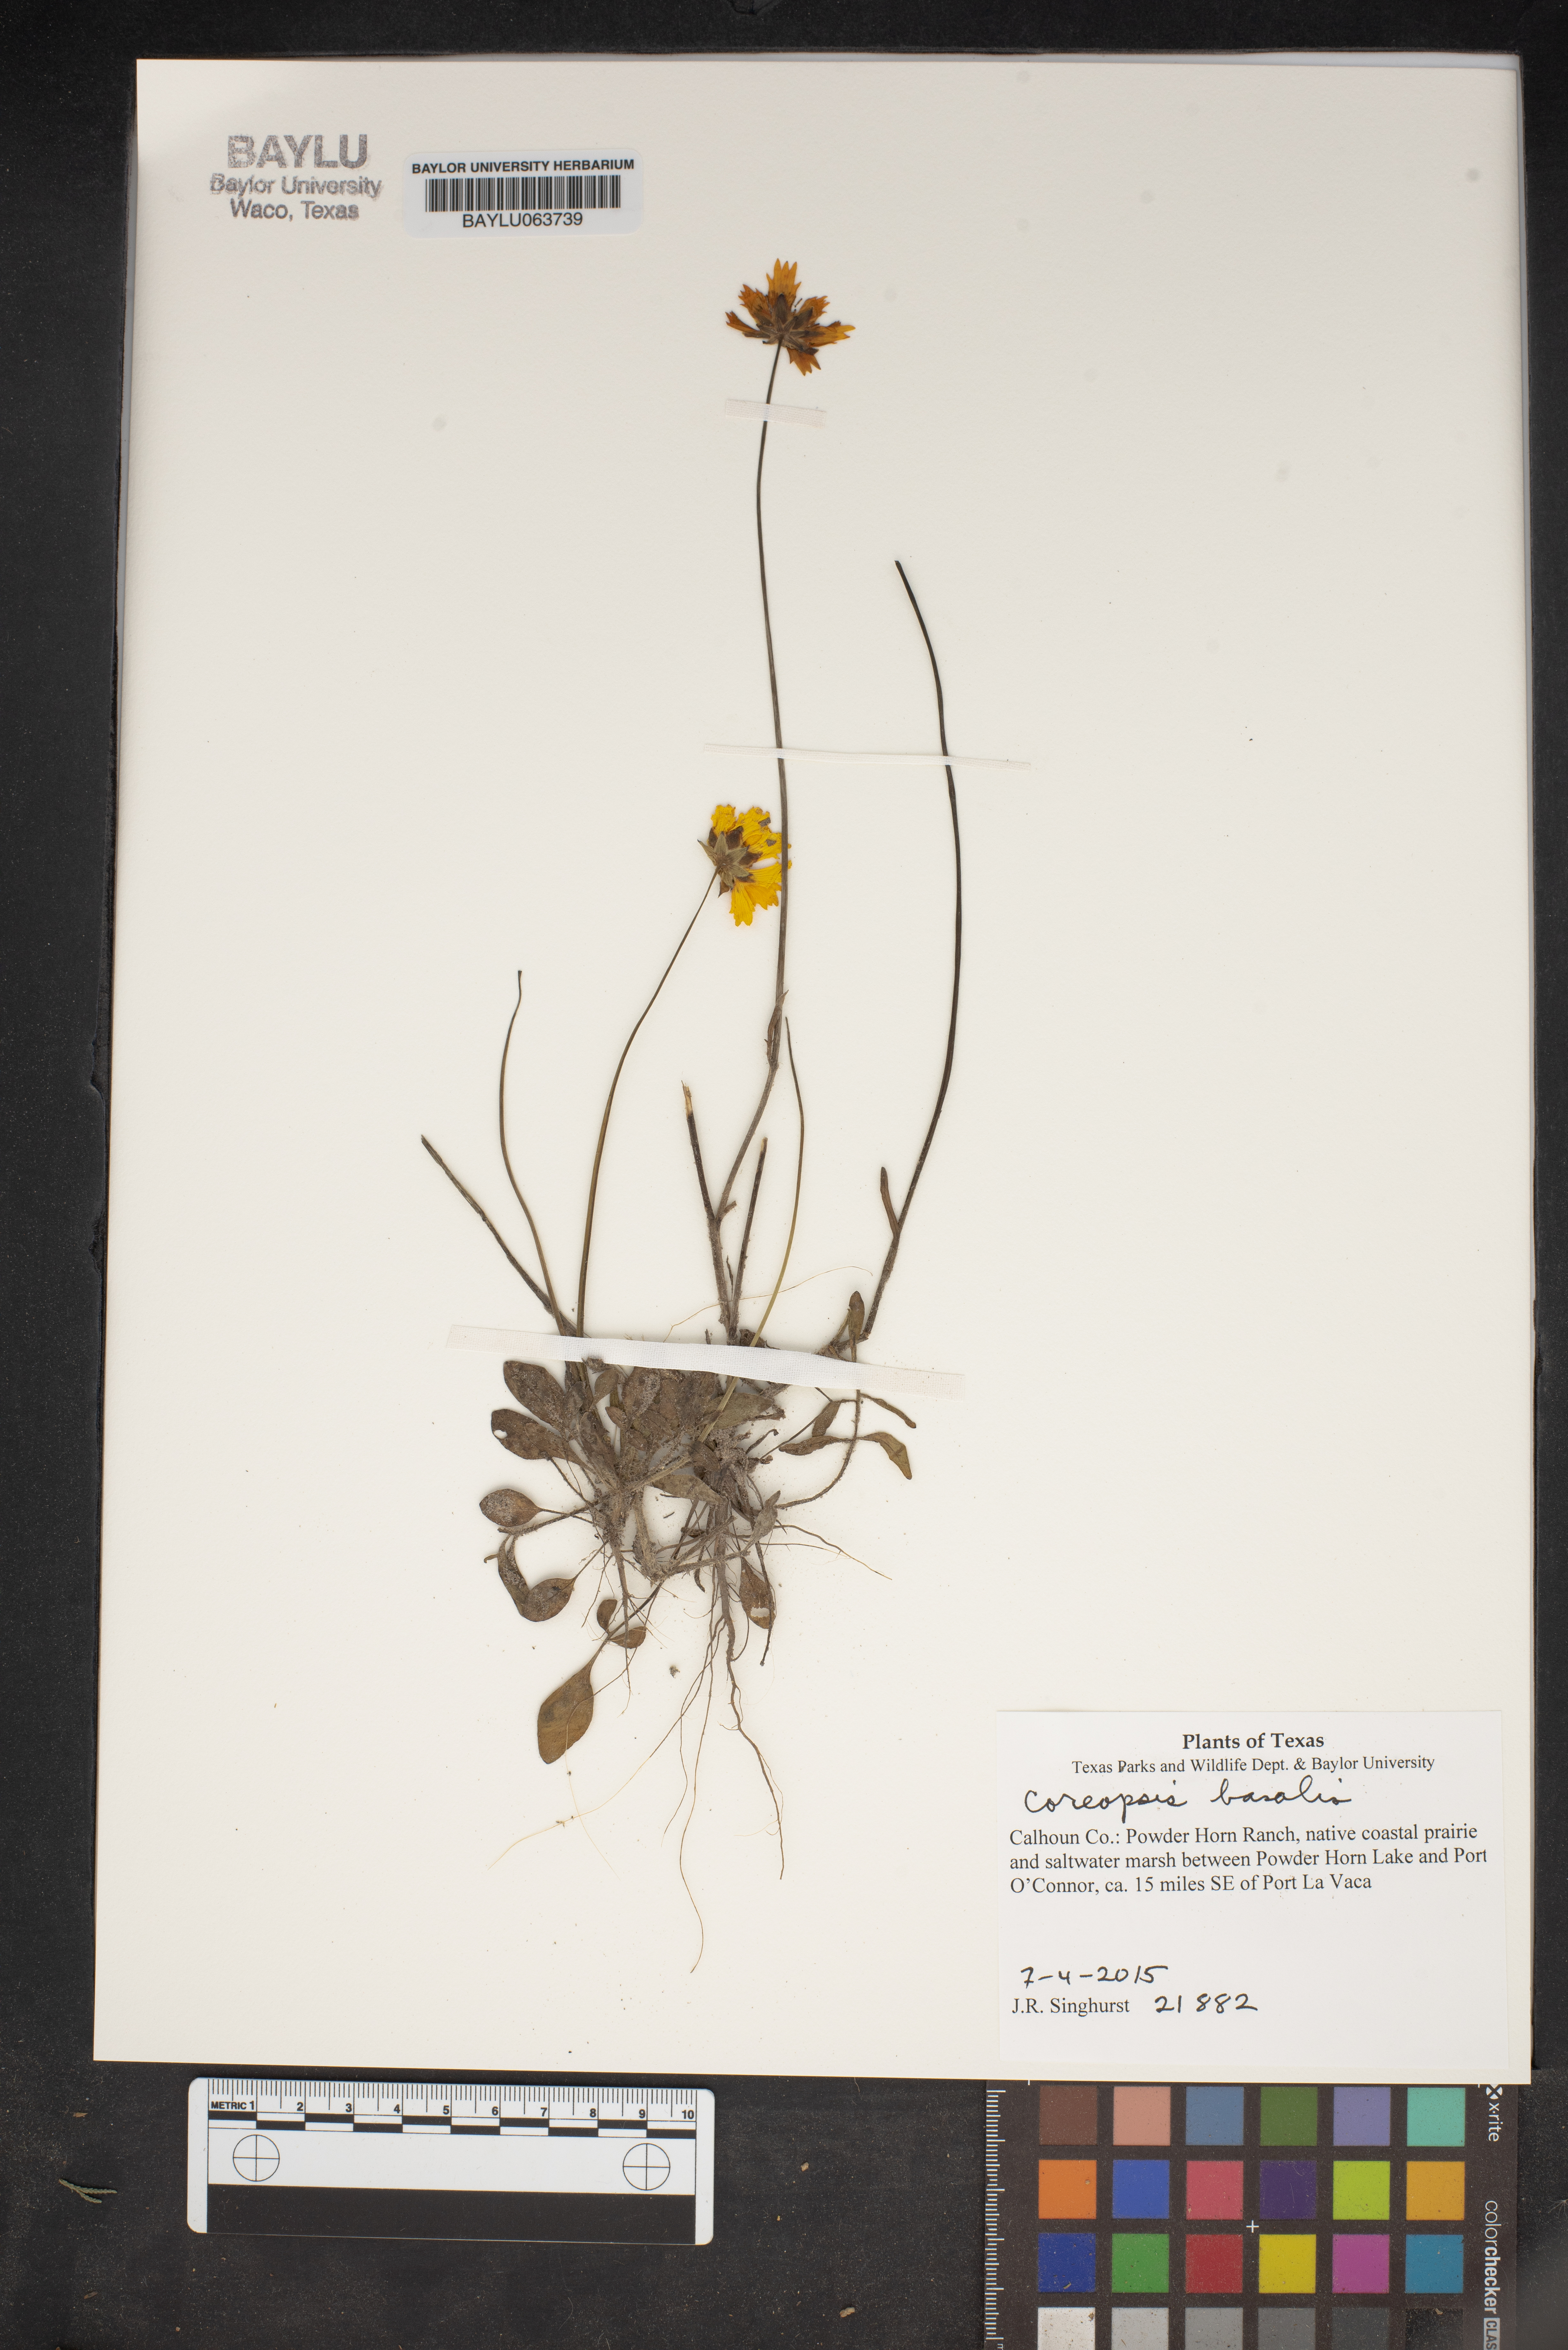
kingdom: Plantae
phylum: Tracheophyta
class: Magnoliopsida
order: Asterales
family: Asteraceae
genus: Coreopsis
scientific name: Coreopsis basalis
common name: Golden-mane coreopsis
